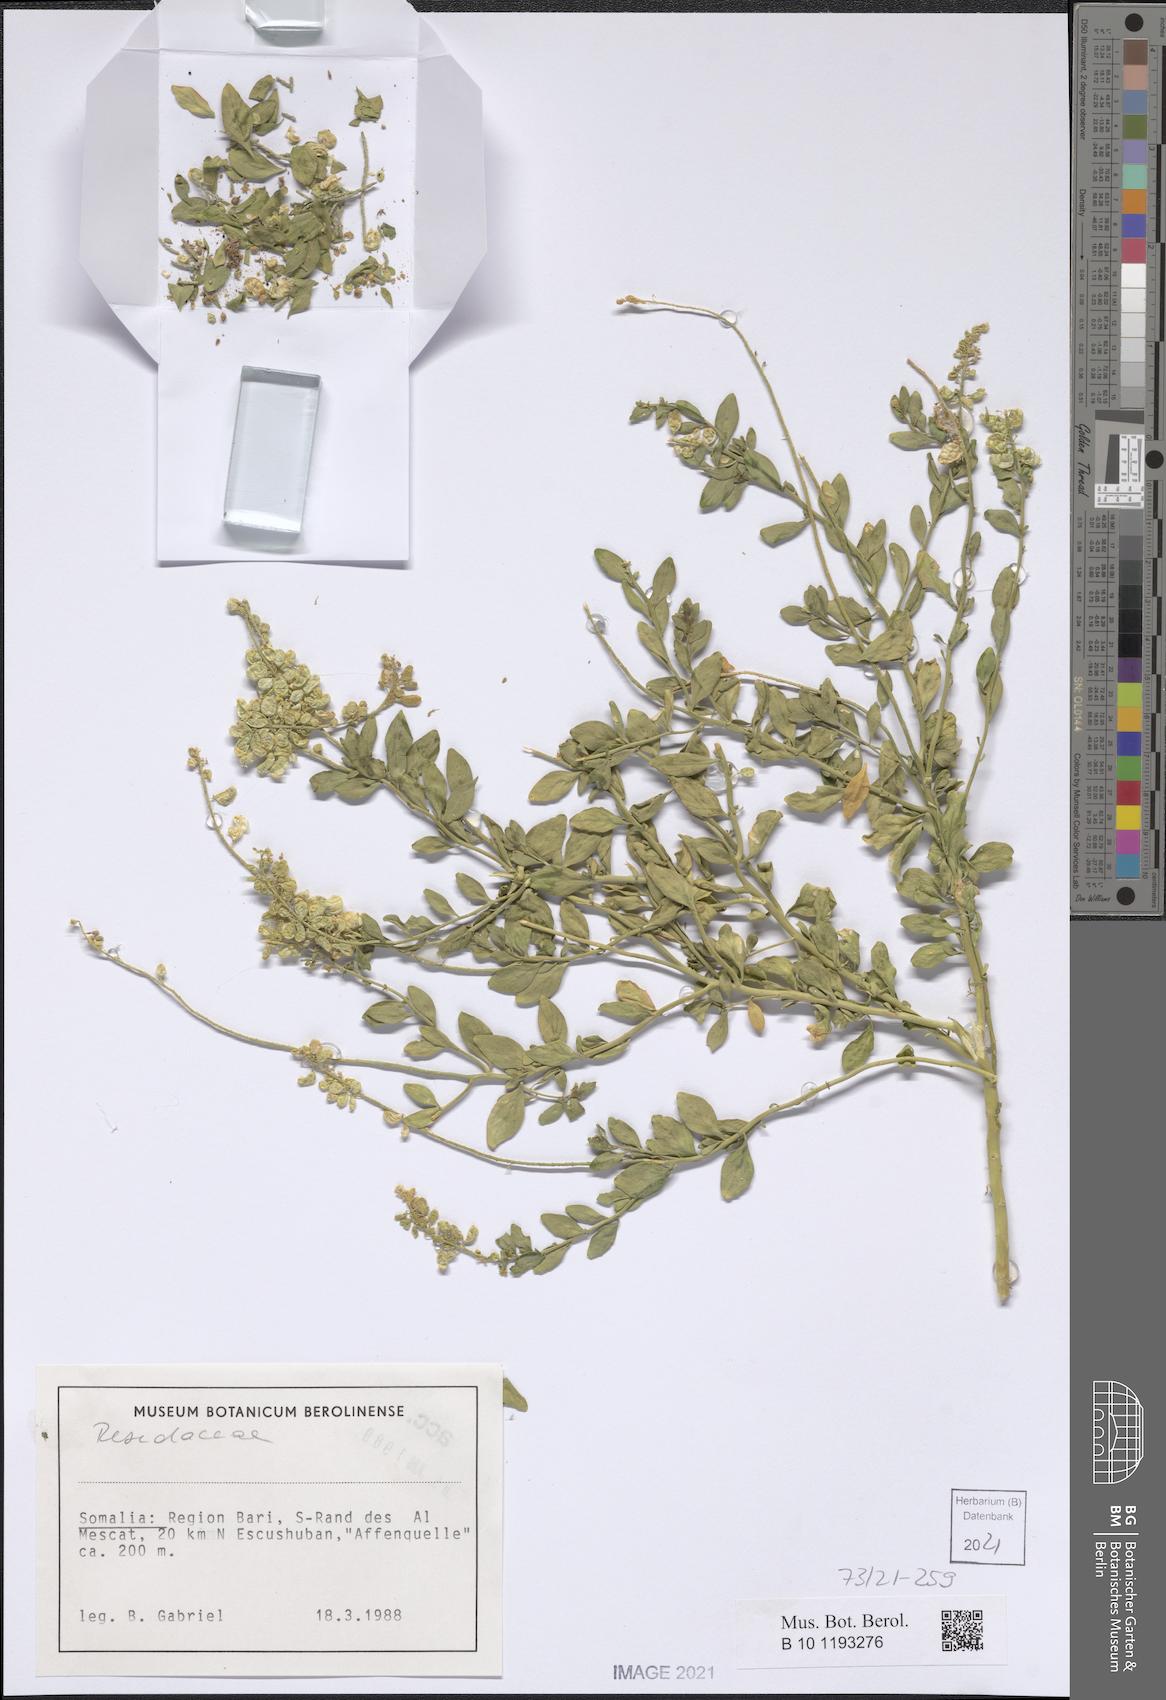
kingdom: Plantae
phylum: Tracheophyta
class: Magnoliopsida
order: Brassicales
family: Resedaceae
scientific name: Resedaceae
